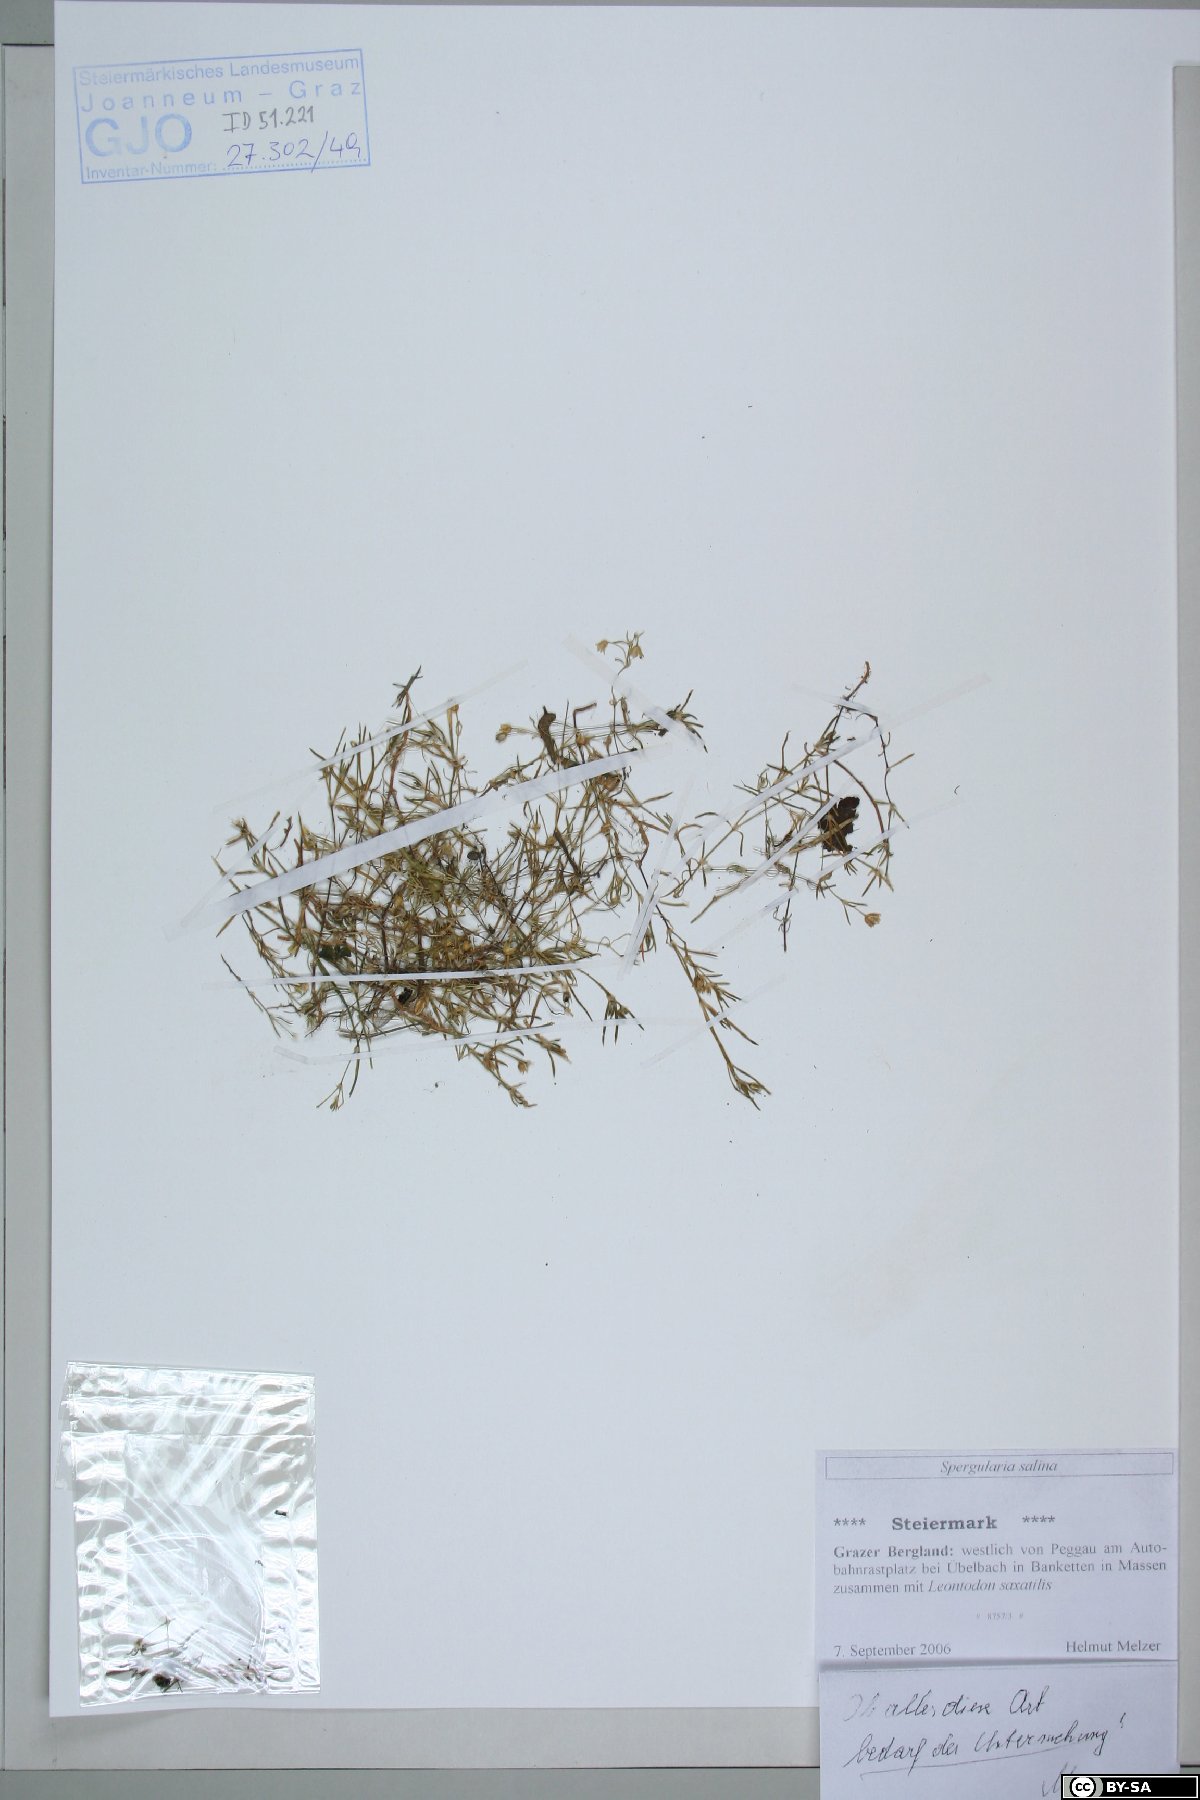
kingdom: Plantae
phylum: Tracheophyta
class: Magnoliopsida
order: Caryophyllales
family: Caryophyllaceae
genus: Spergularia
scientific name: Spergularia marina
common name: Lesser sea-spurrey
